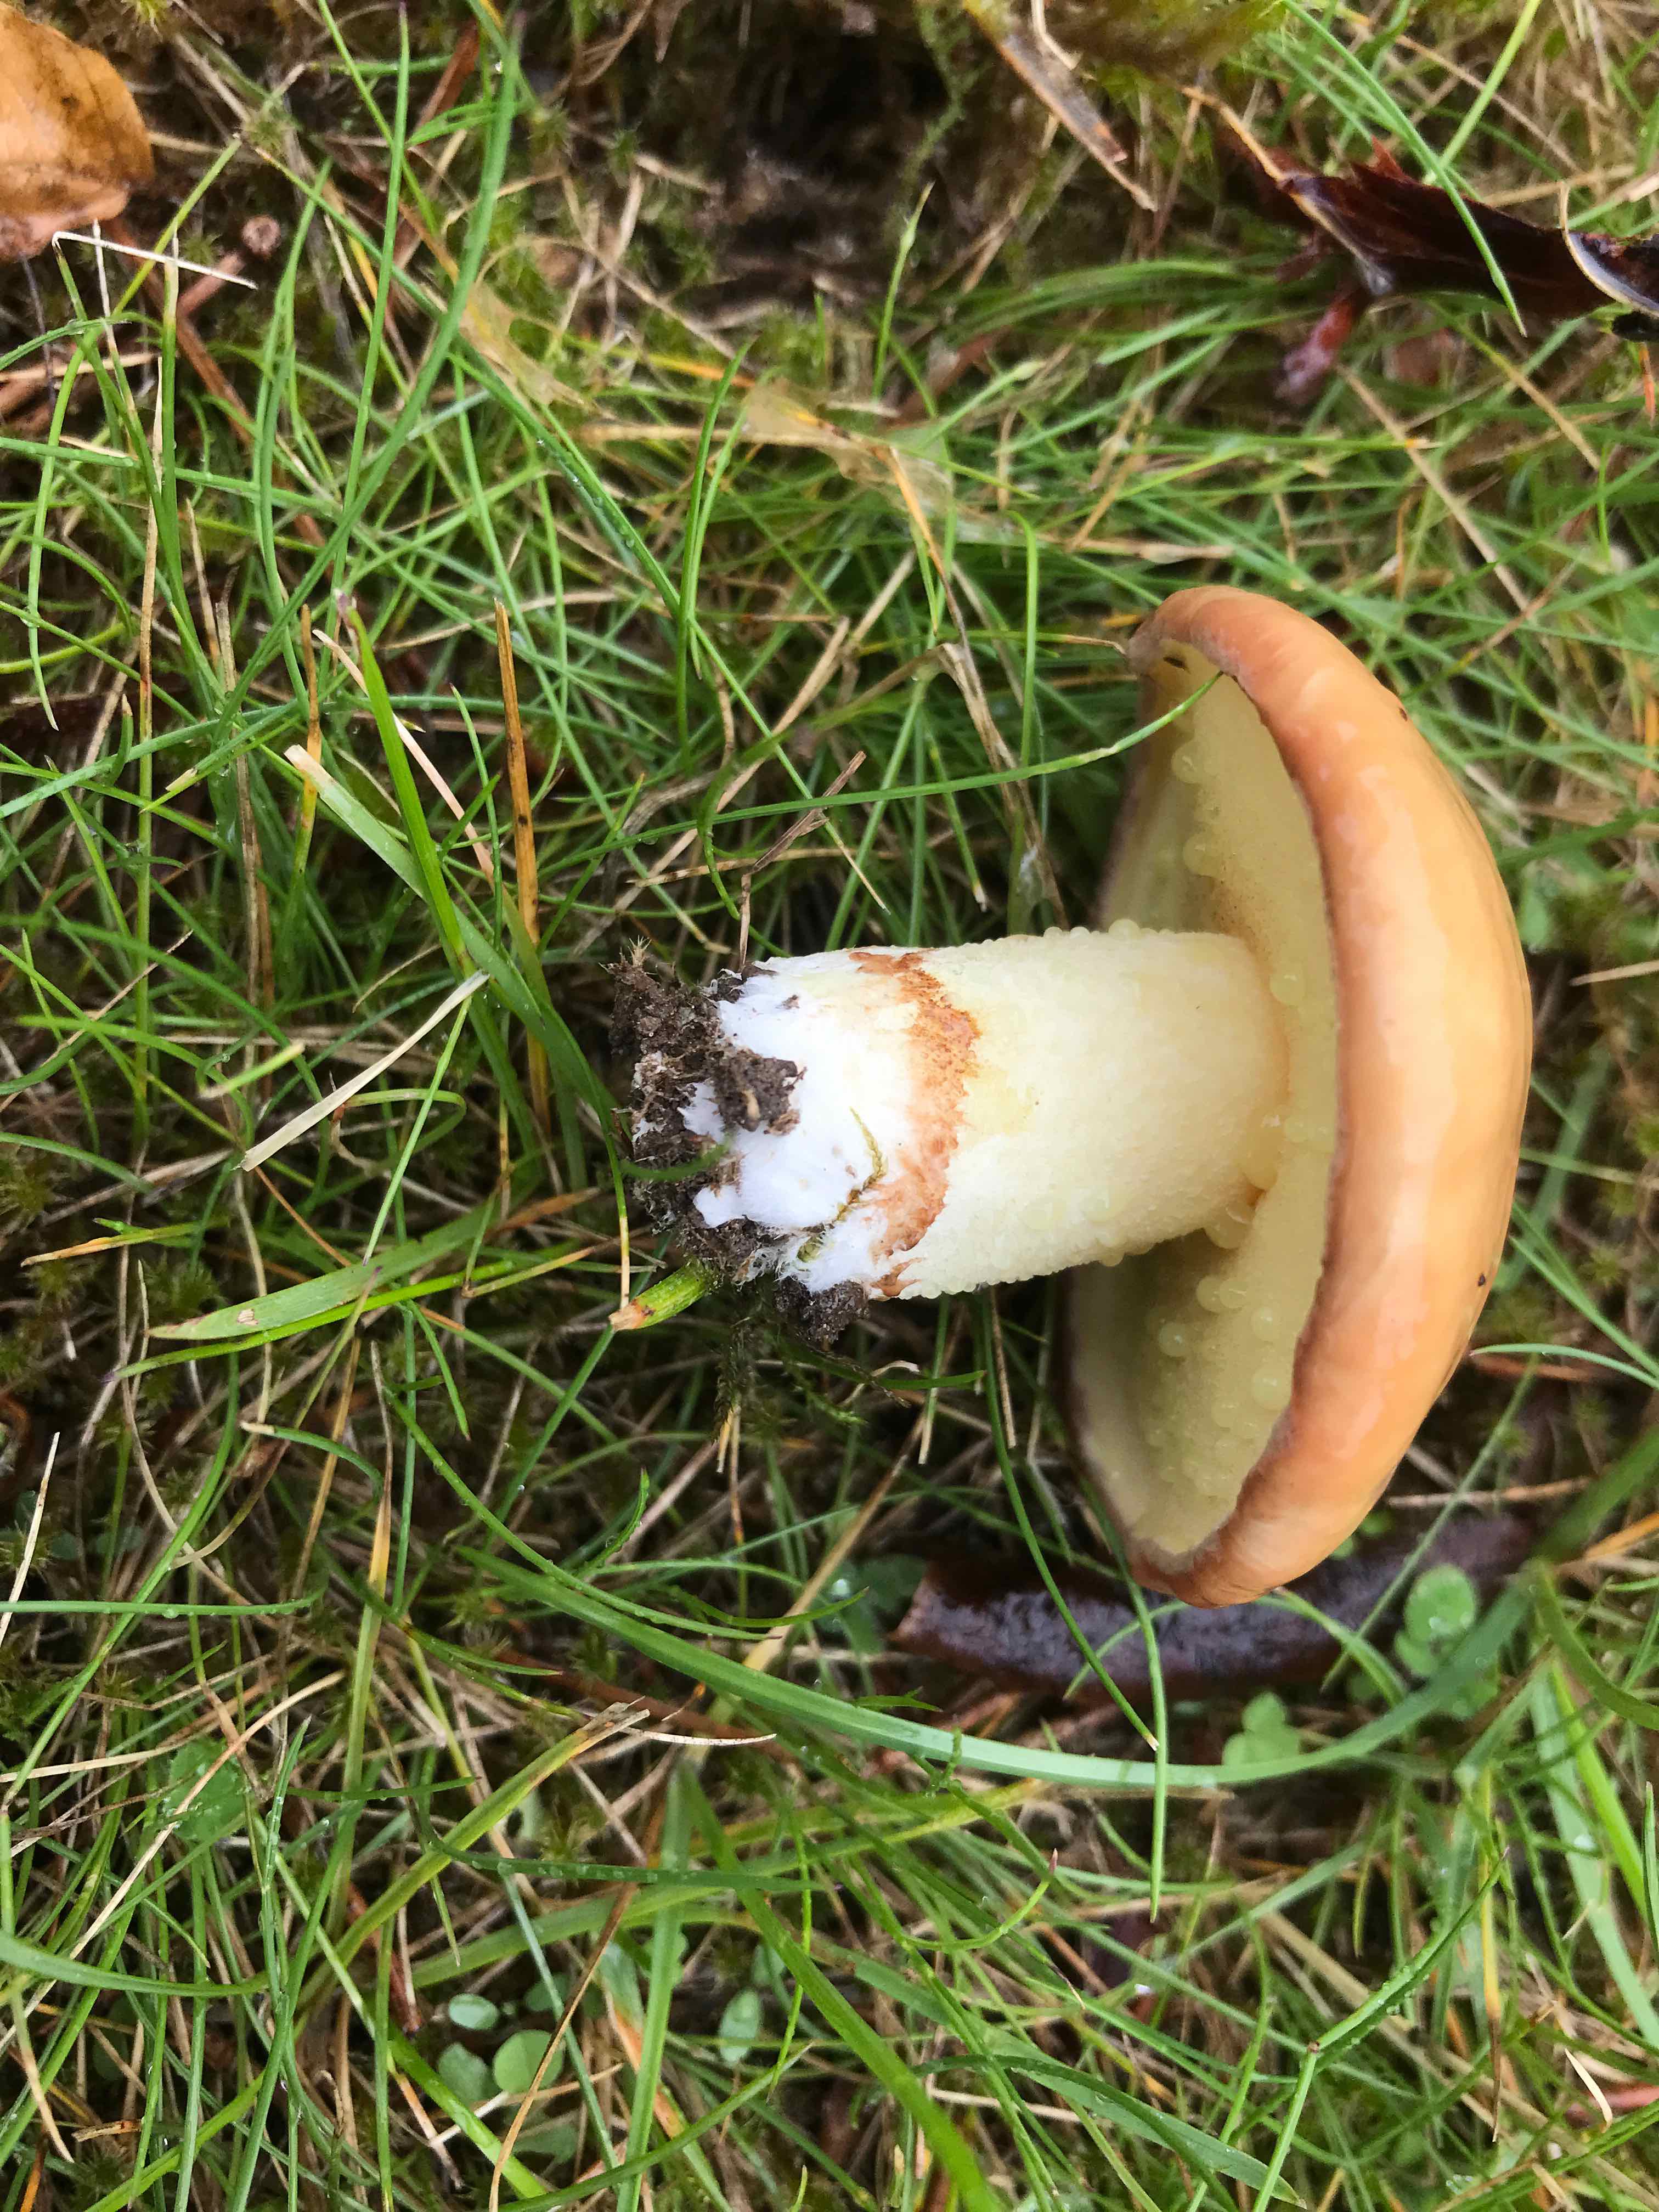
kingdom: Fungi
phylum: Basidiomycota
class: Agaricomycetes
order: Boletales
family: Suillaceae
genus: Suillus
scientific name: Suillus granulatus
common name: kornet slimrørhat
